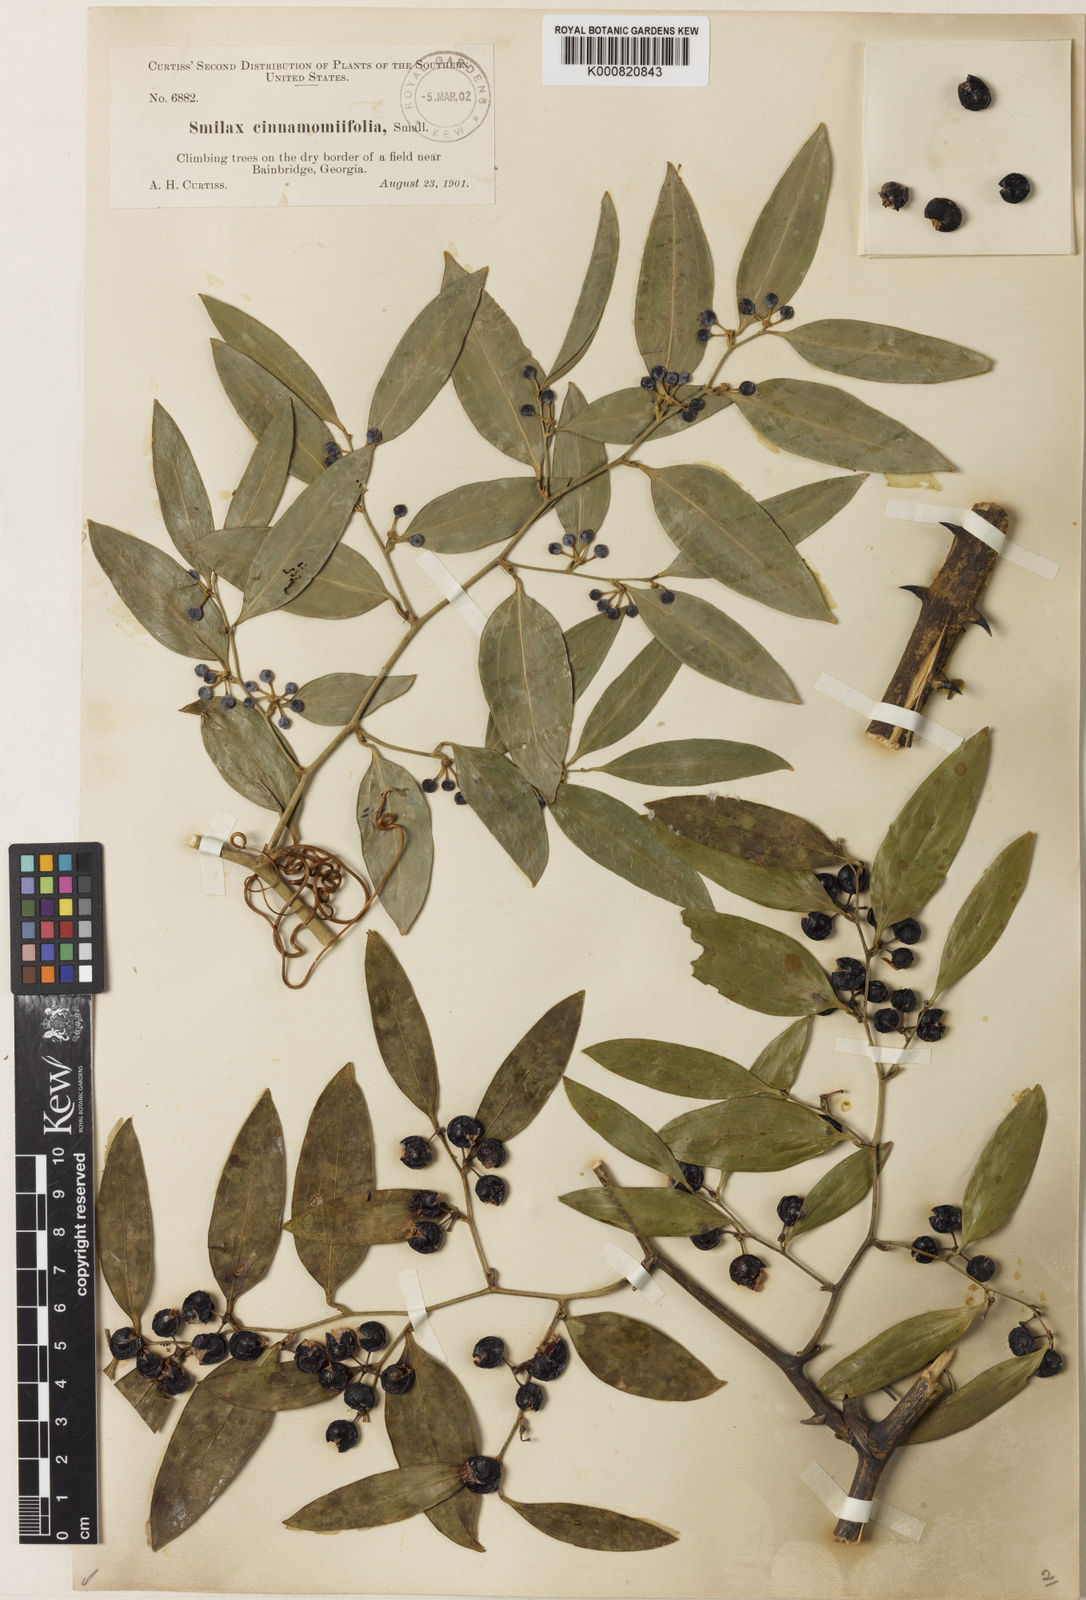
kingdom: Plantae
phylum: Tracheophyta
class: Liliopsida
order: Liliales
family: Smilacaceae
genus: Smilax
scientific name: Smilax maritima
